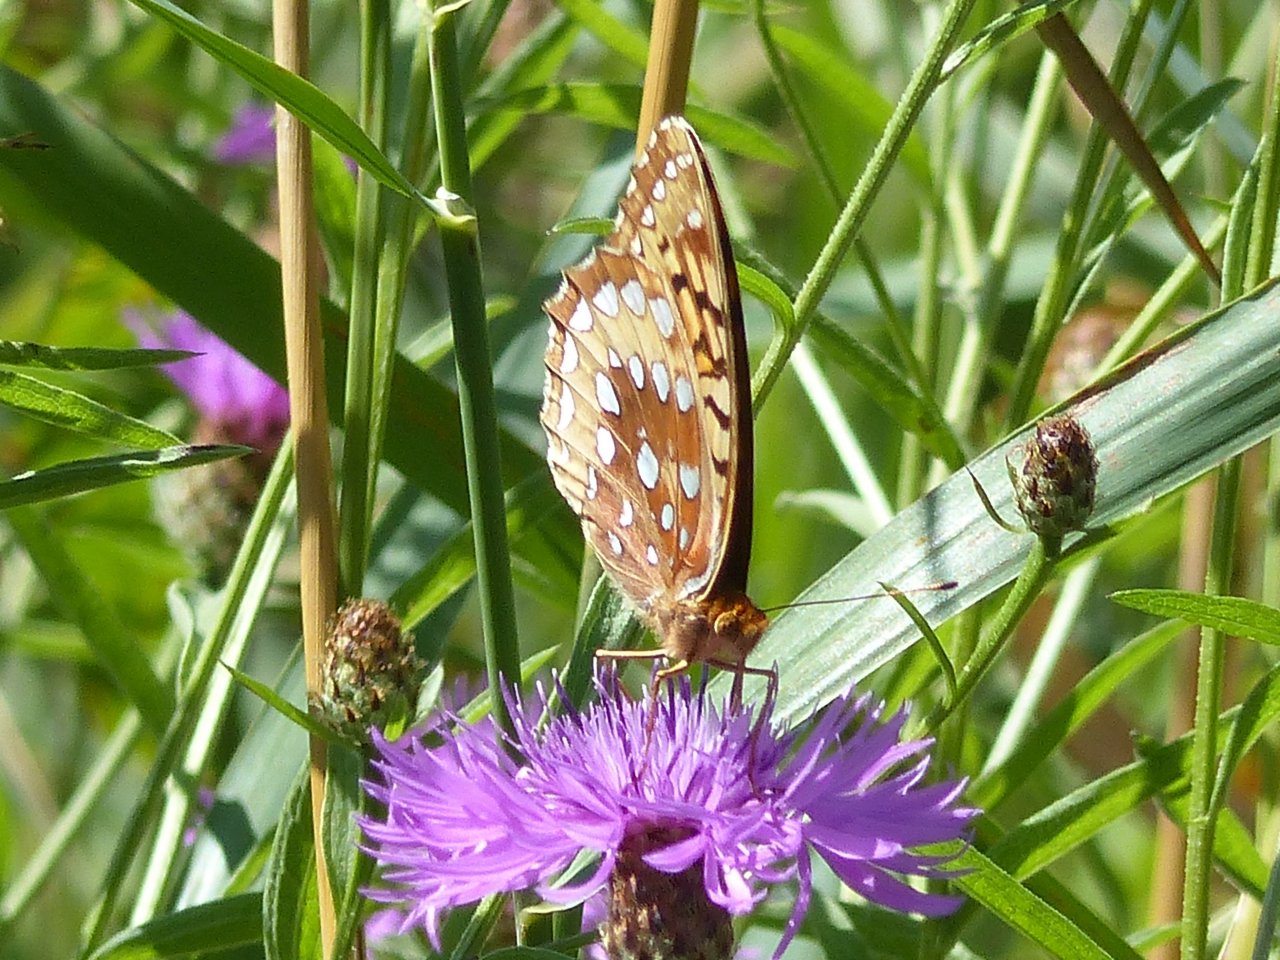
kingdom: Animalia
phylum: Arthropoda
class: Insecta
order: Lepidoptera
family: Nymphalidae
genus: Speyeria
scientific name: Speyeria cybele
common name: Great Spangled Fritillary
